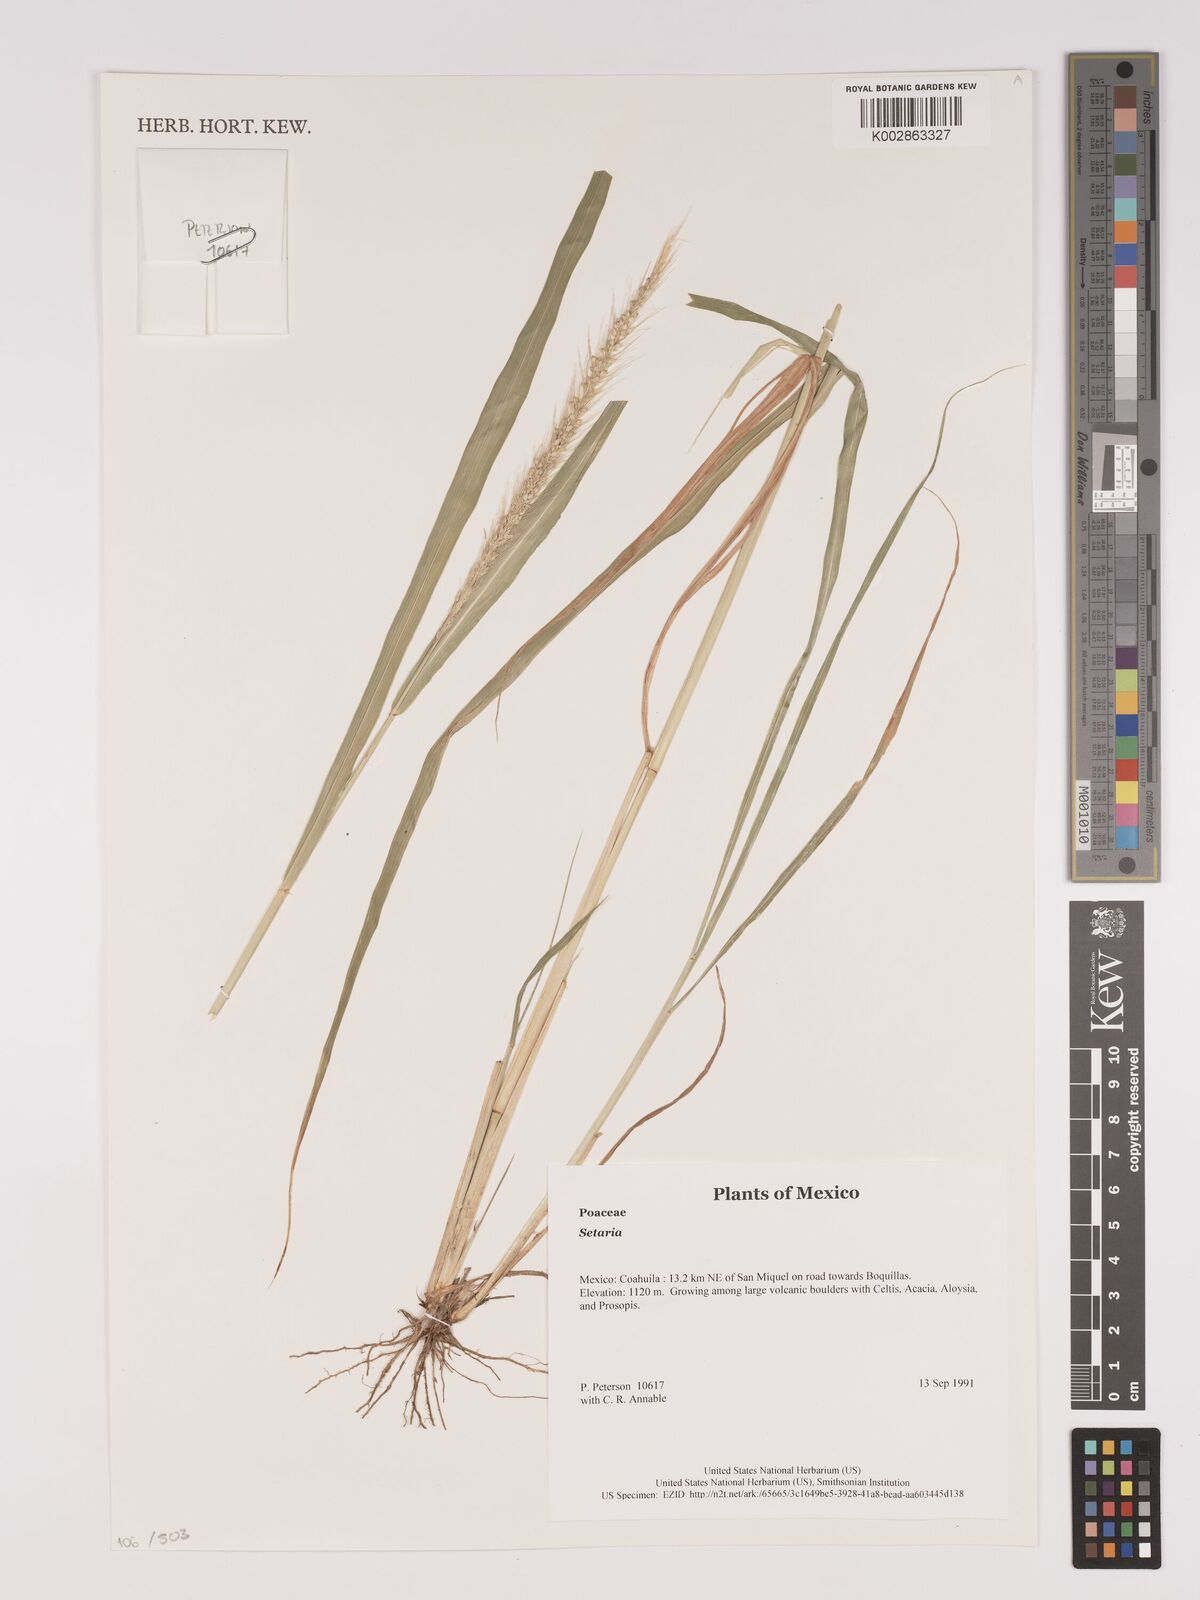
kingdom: Plantae
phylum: Tracheophyta
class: Liliopsida
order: Poales
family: Poaceae
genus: Setaria
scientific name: Setaria
